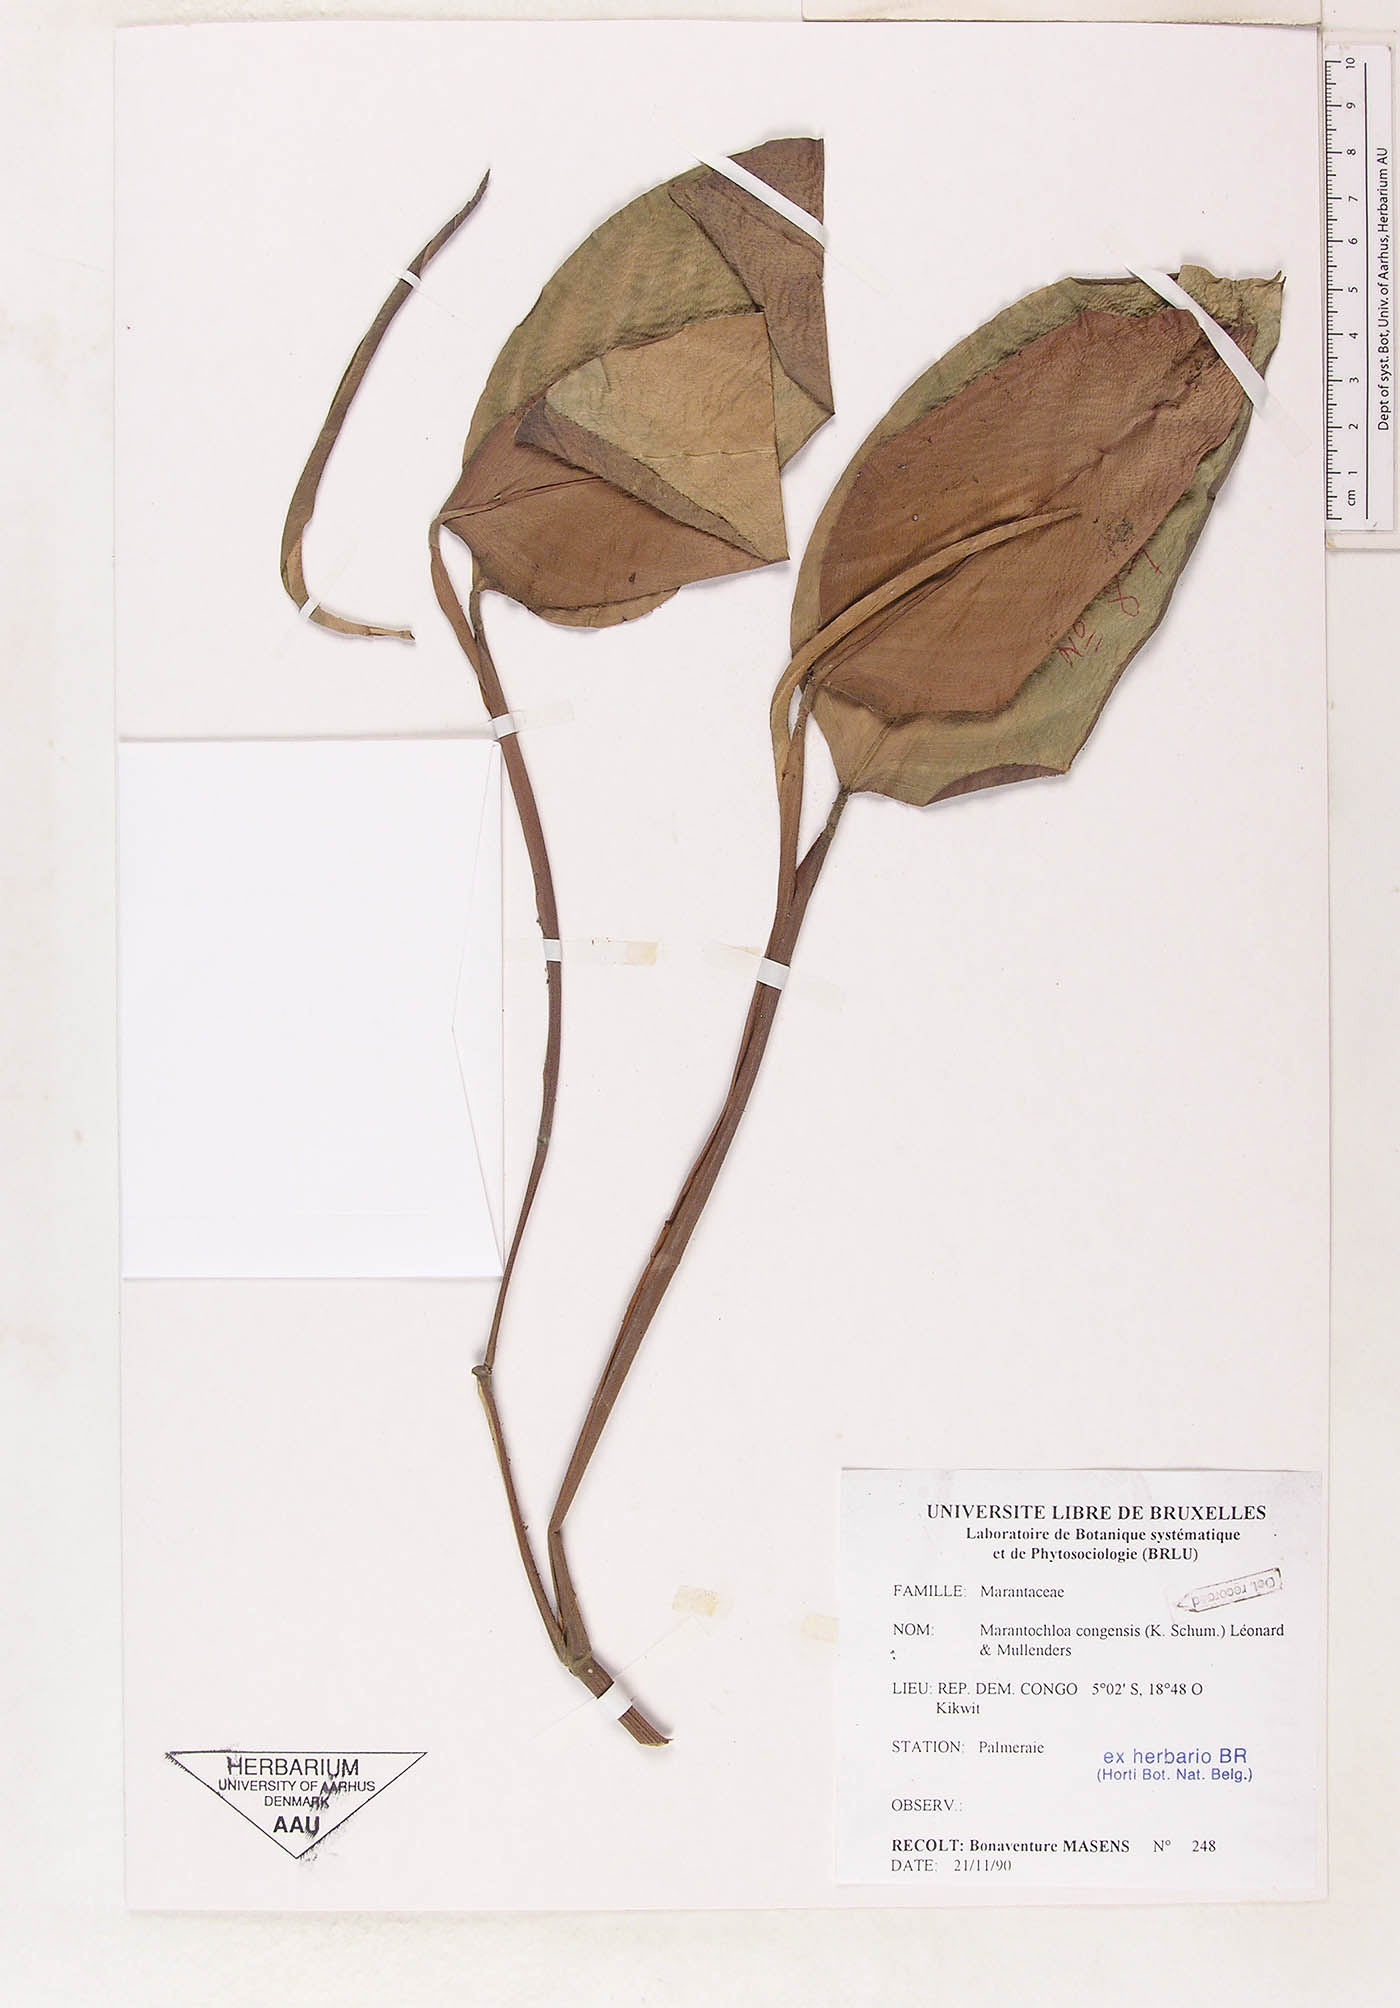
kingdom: Plantae
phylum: Tracheophyta
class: Liliopsida
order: Zingiberales
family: Marantaceae
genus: Marantochloa
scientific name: Marantochloa congensis
